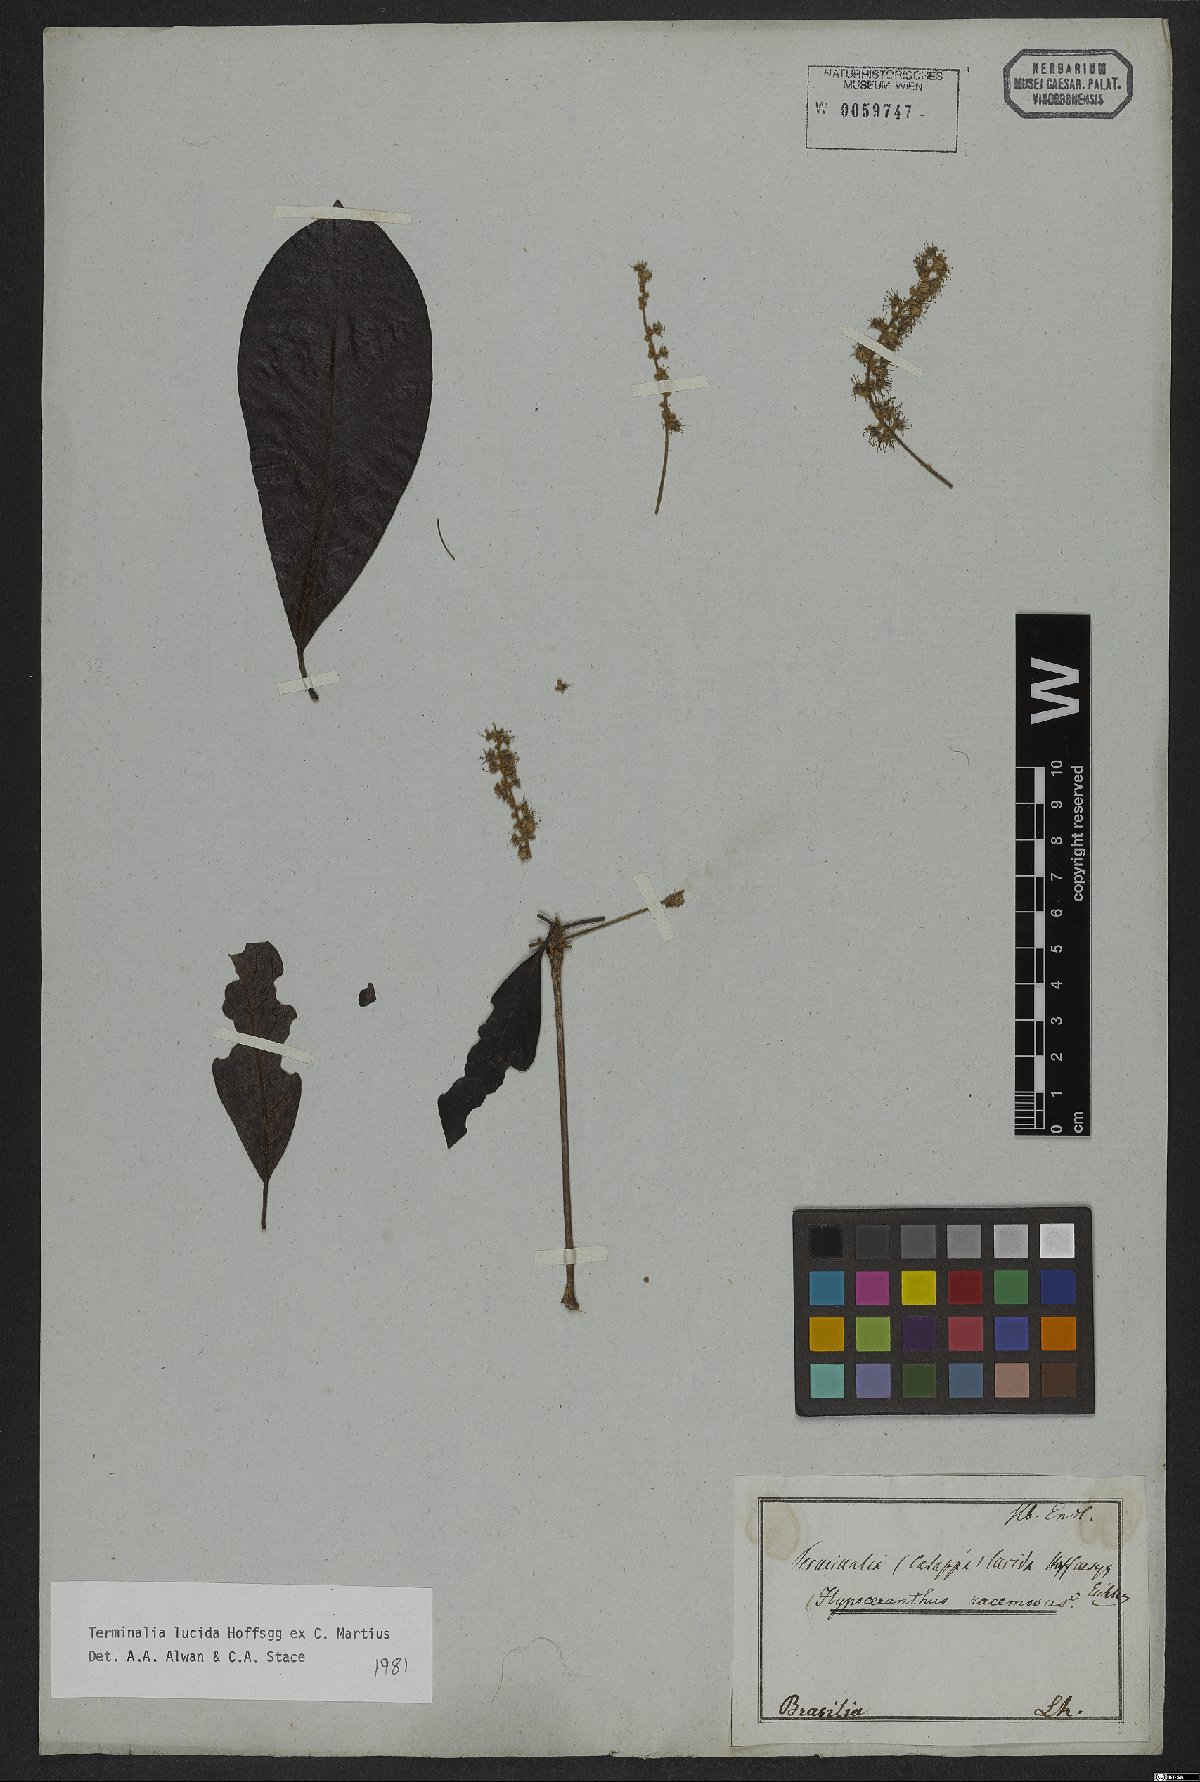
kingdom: Plantae
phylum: Tracheophyta
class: Magnoliopsida
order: Myrtales
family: Combretaceae
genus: Terminalia
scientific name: Terminalia lucida
